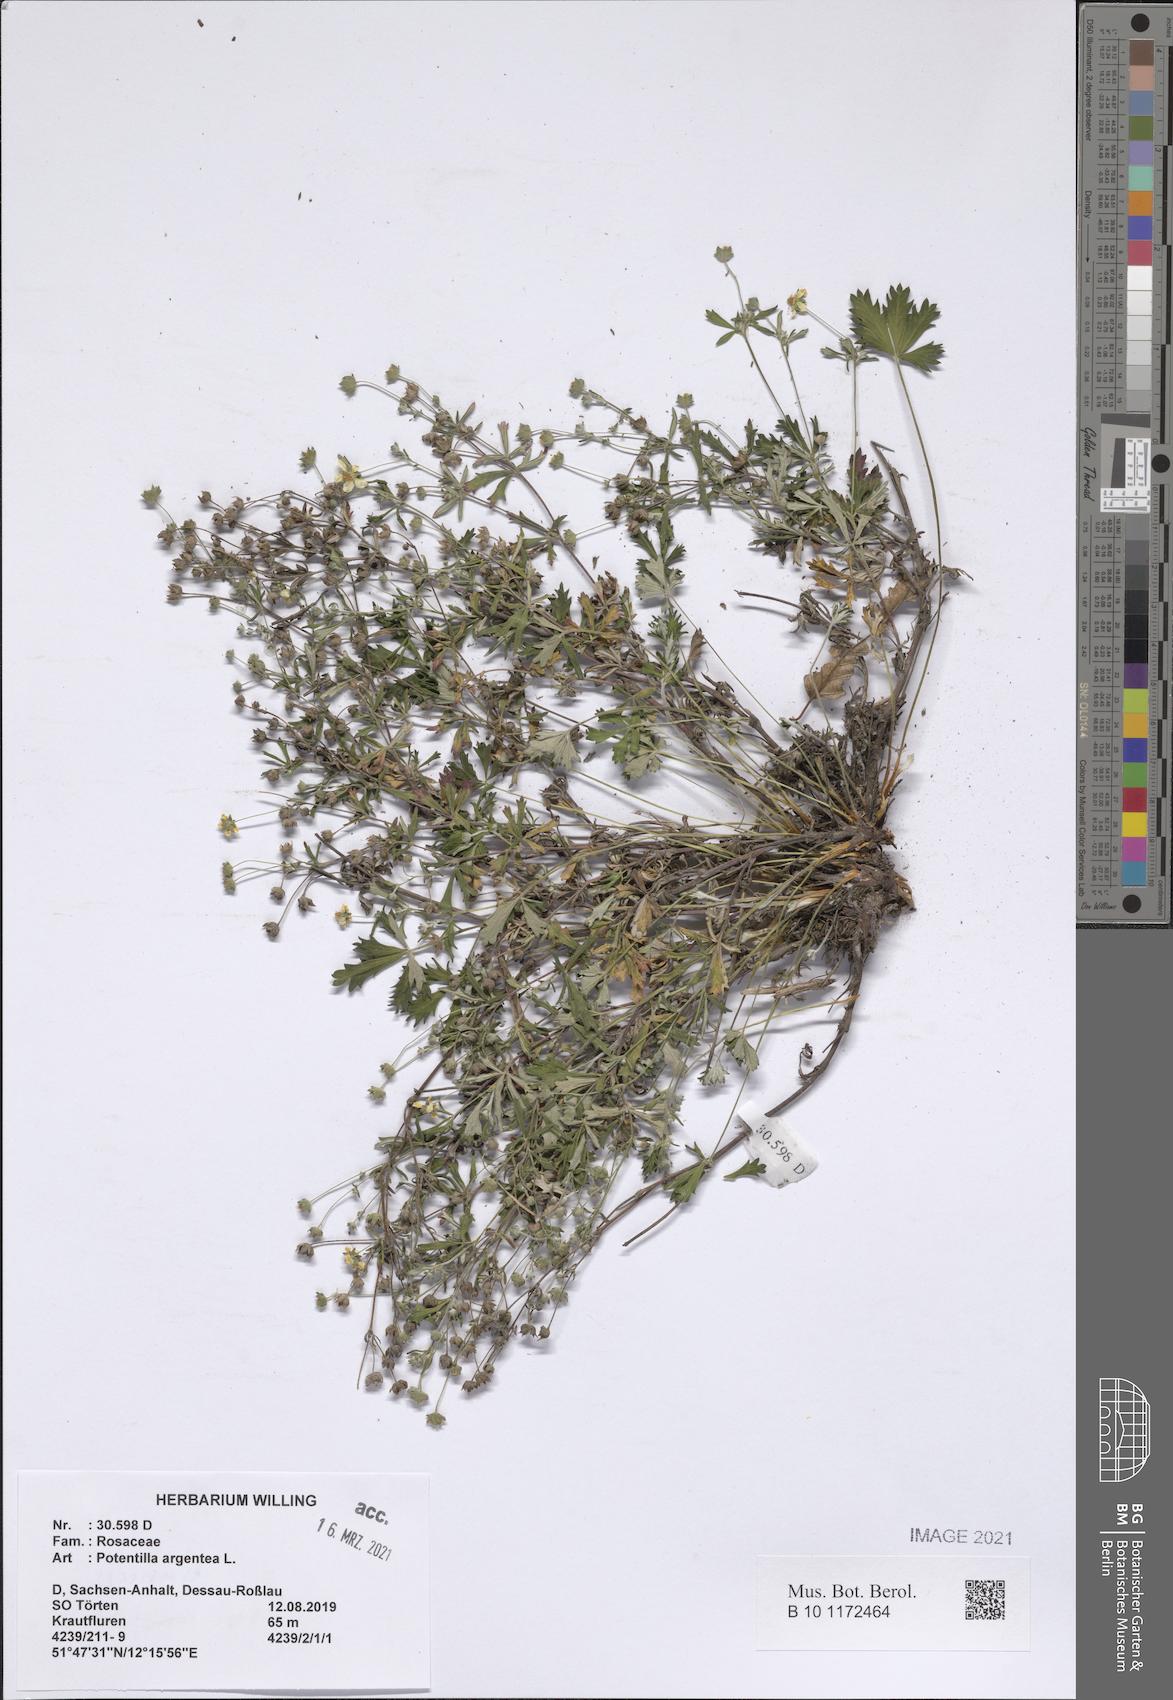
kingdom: Plantae
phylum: Tracheophyta
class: Magnoliopsida
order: Rosales
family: Rosaceae
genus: Potentilla
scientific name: Potentilla argentea
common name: Hoary cinquefoil
